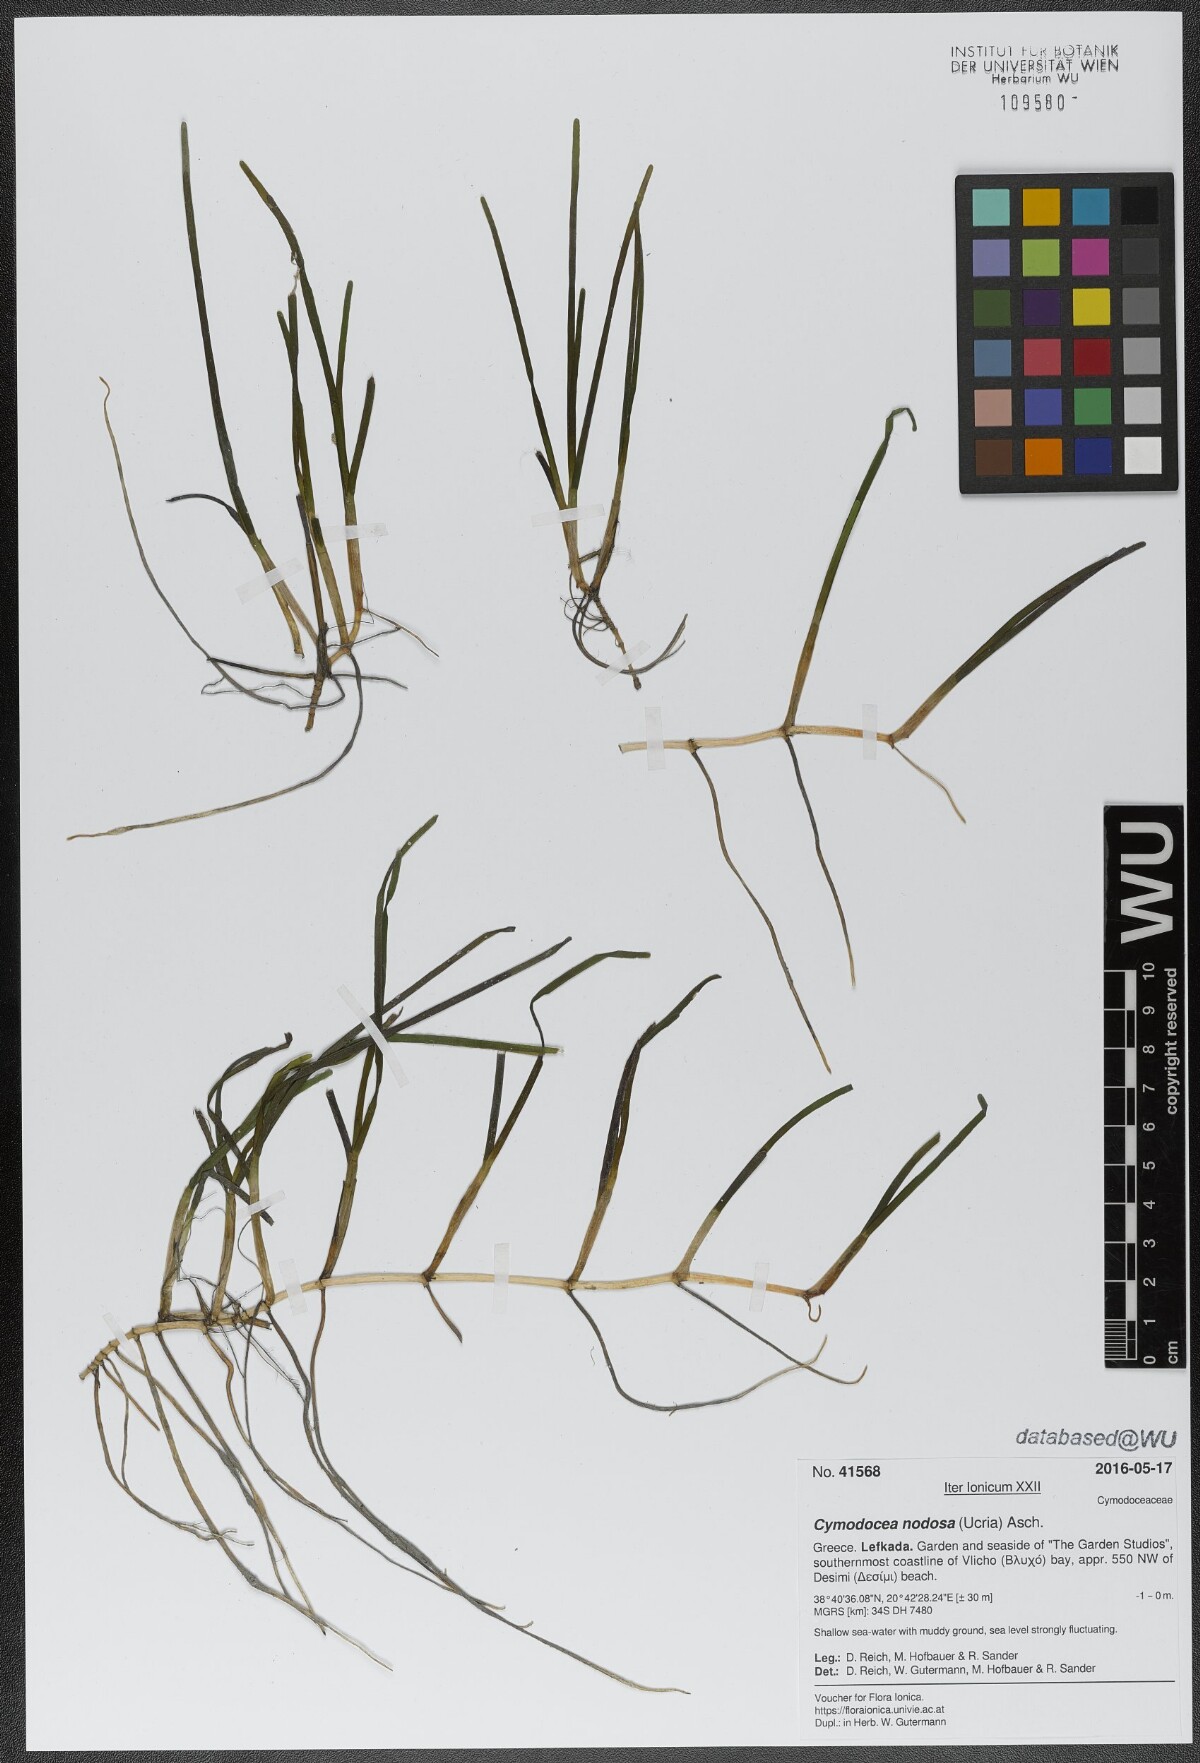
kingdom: Plantae
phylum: Tracheophyta
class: Liliopsida
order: Alismatales
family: Cymodoceaceae
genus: Cymodocea
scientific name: Cymodocea nodosa
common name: Slender seagrass
